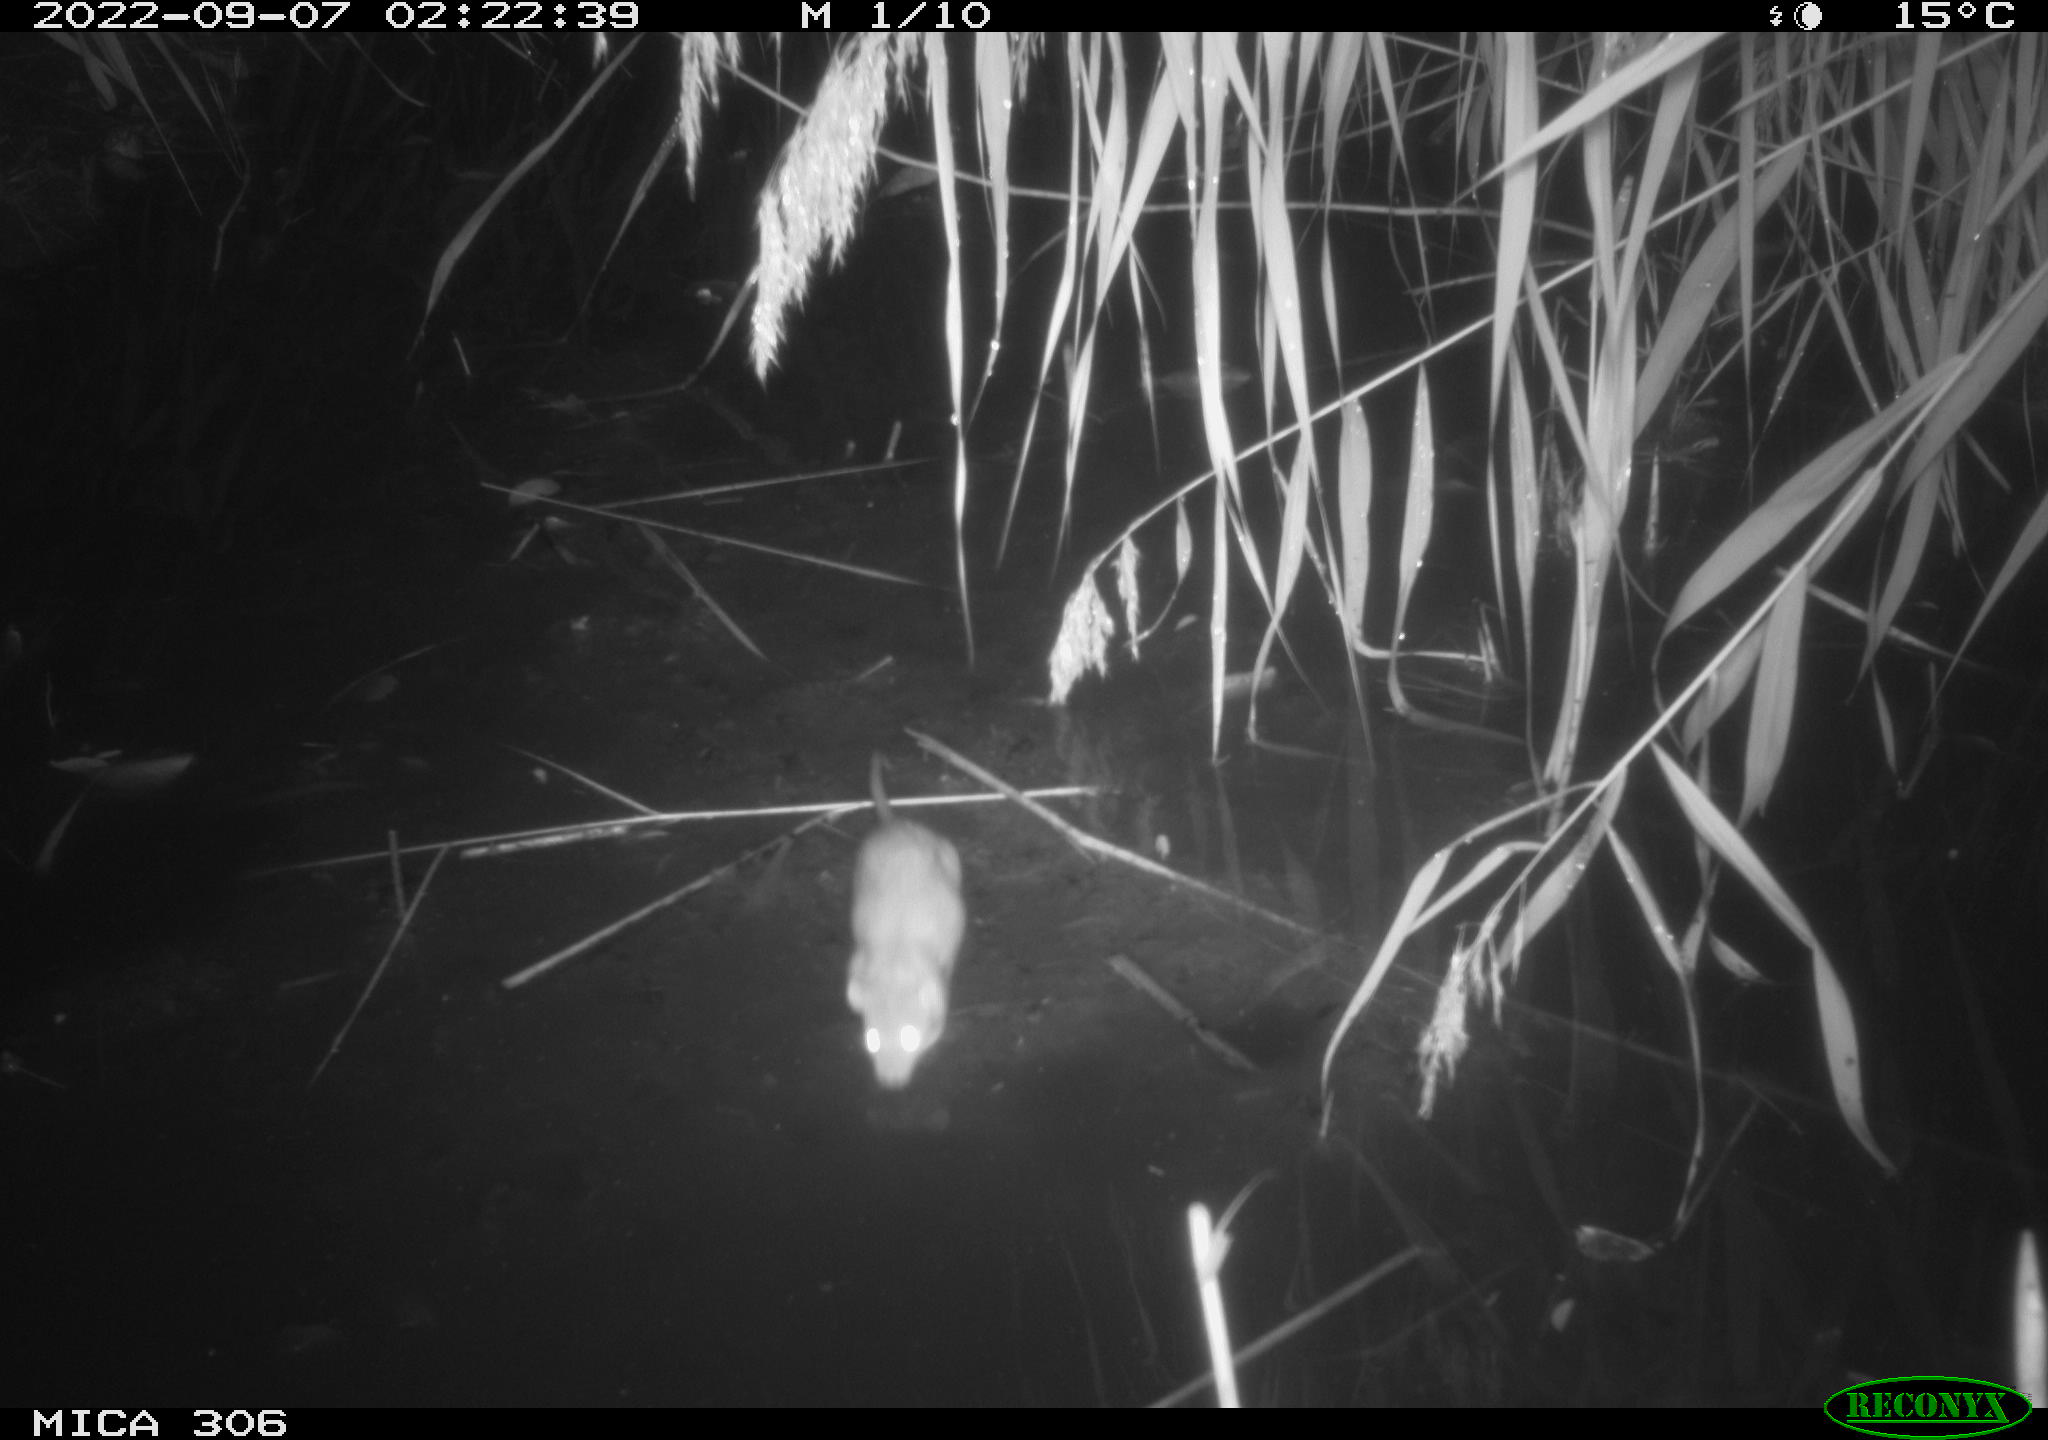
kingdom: Animalia
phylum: Chordata
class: Mammalia
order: Rodentia
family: Muridae
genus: Rattus
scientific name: Rattus norvegicus
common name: Brown rat
